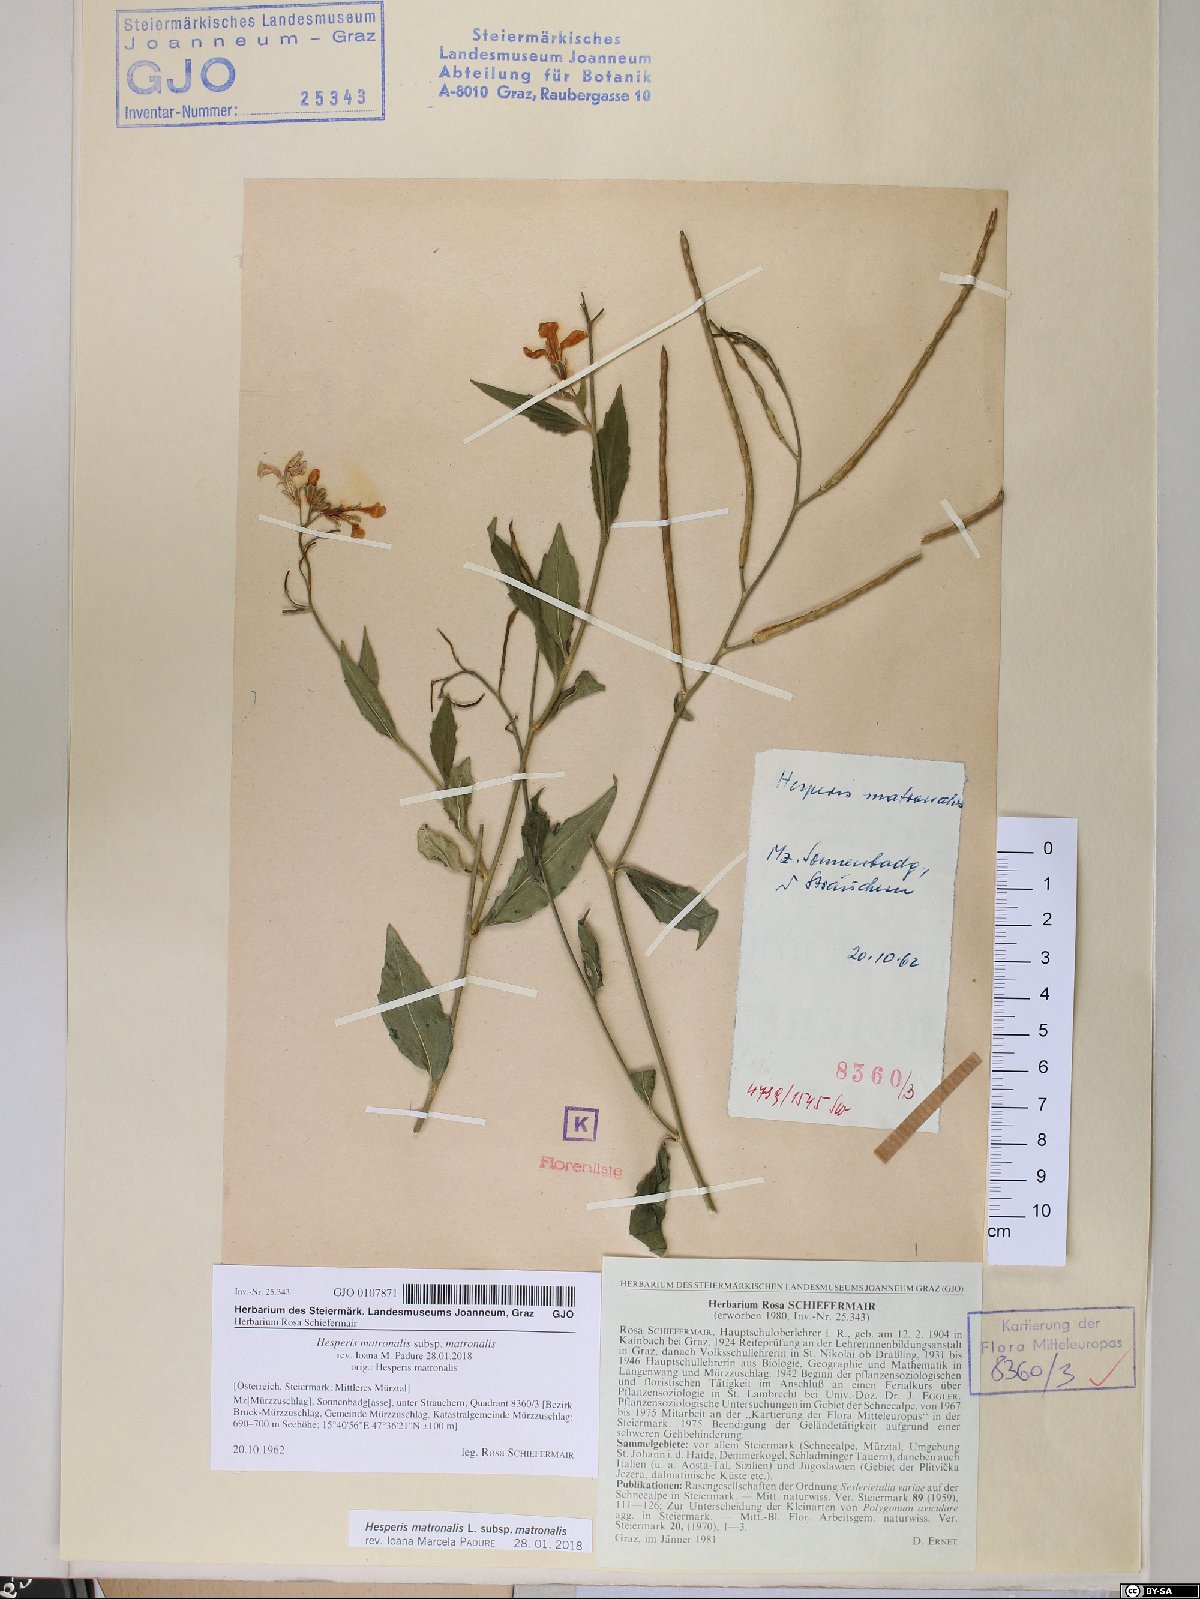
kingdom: Plantae
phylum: Tracheophyta
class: Magnoliopsida
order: Brassicales
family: Brassicaceae
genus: Hesperis
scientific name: Hesperis matronalis
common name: Dame's-violet
